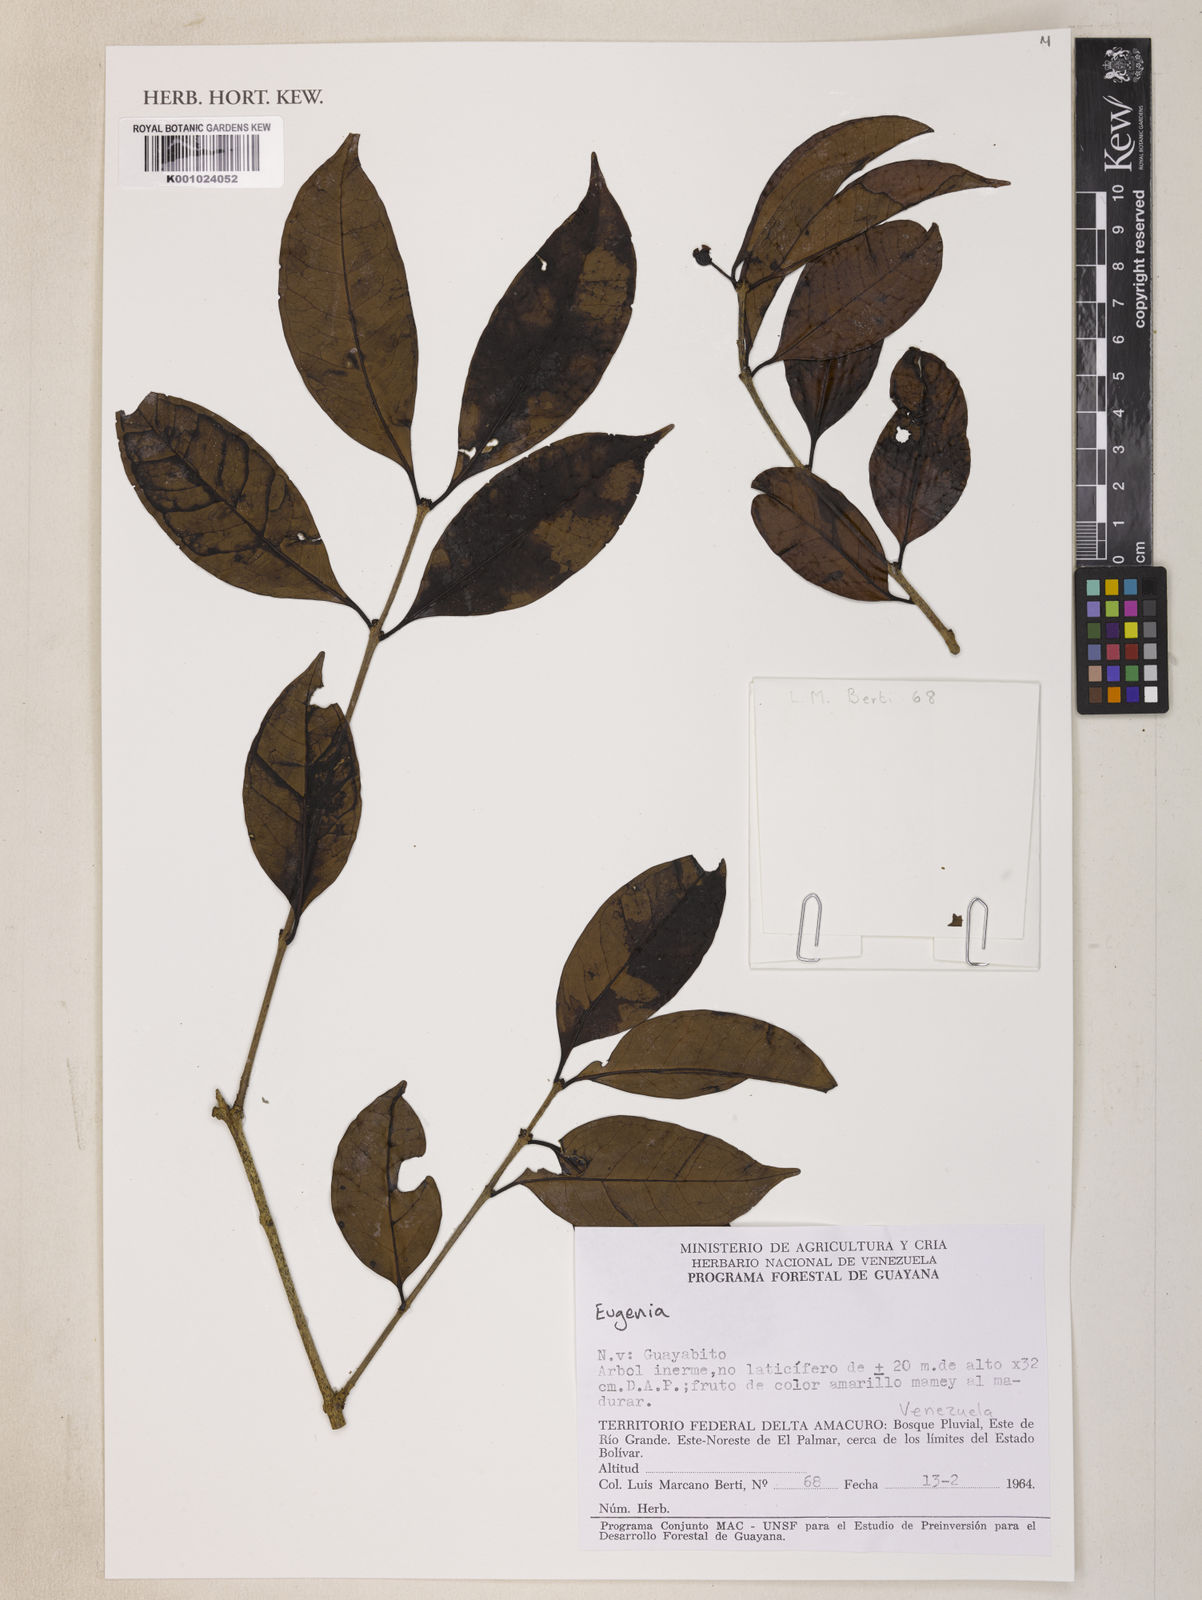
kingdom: Plantae
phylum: Tracheophyta
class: Magnoliopsida
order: Myrtales
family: Myrtaceae
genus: Eugenia
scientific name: Eugenia
